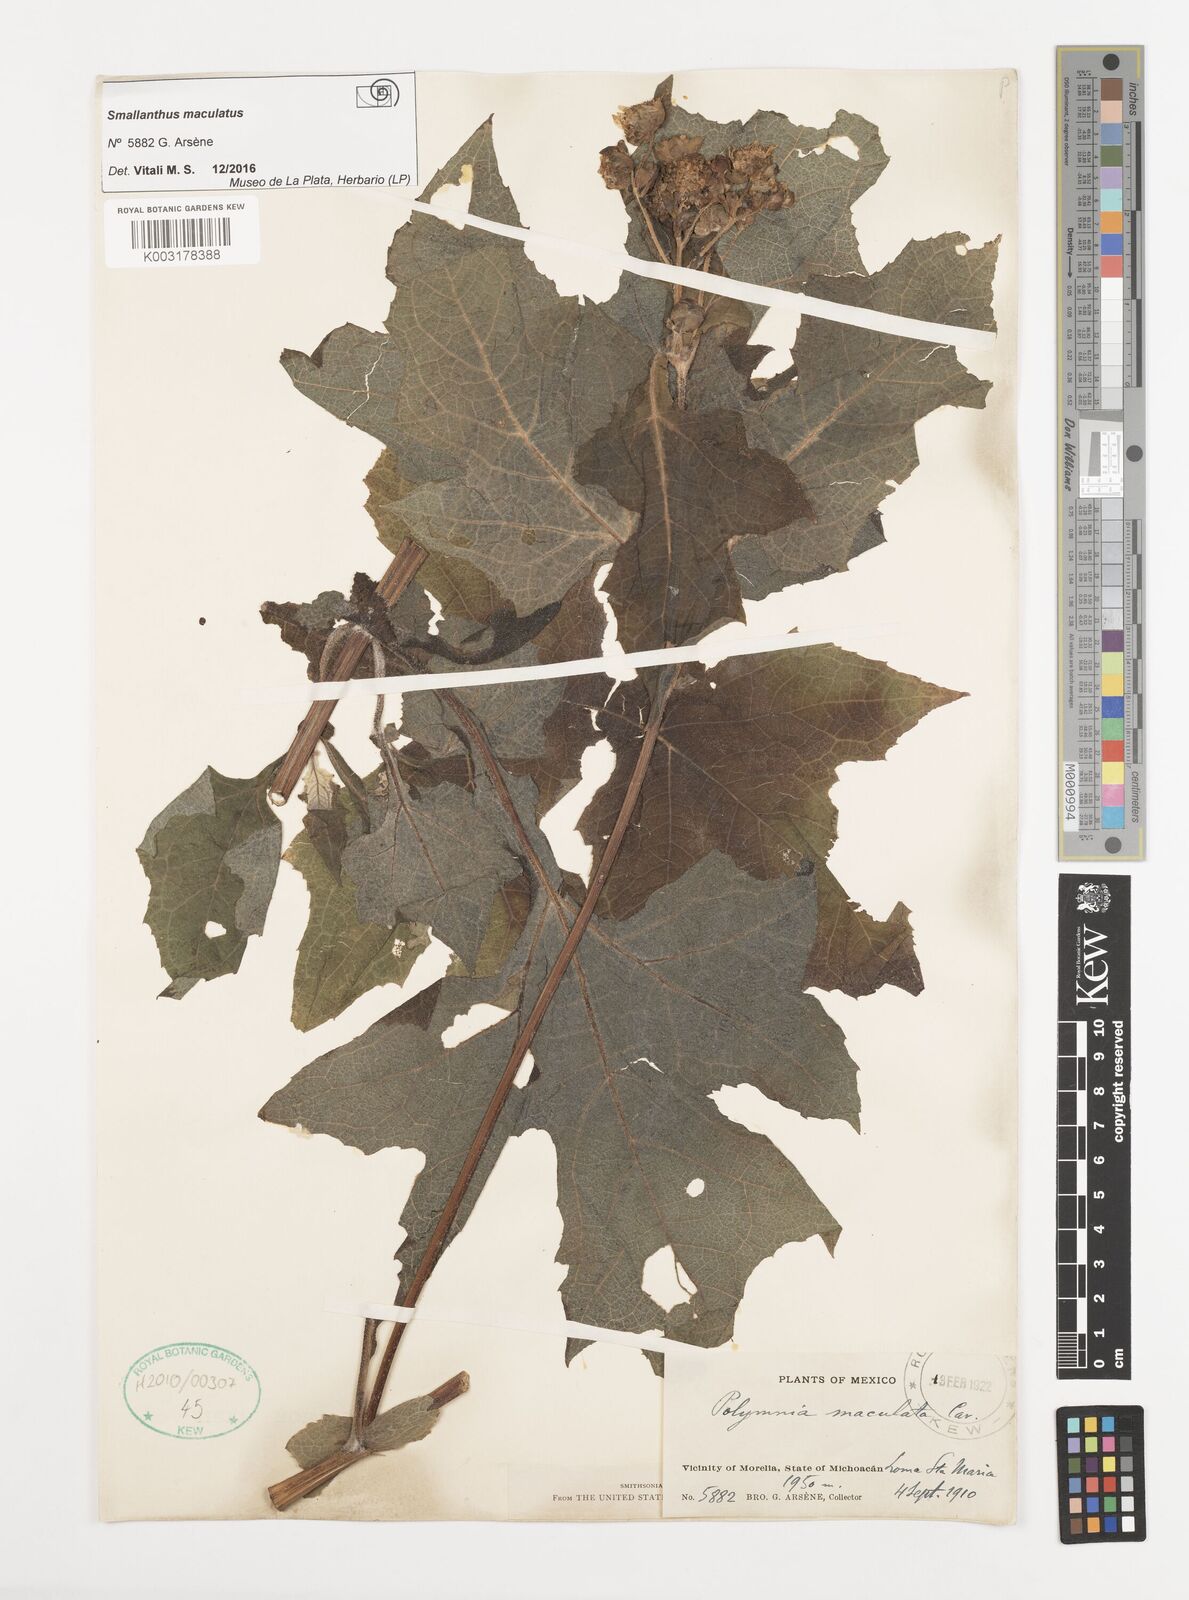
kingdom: Plantae
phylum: Tracheophyta
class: Magnoliopsida
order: Asterales
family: Asteraceae
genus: Smallanthus
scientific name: Smallanthus maculatus
